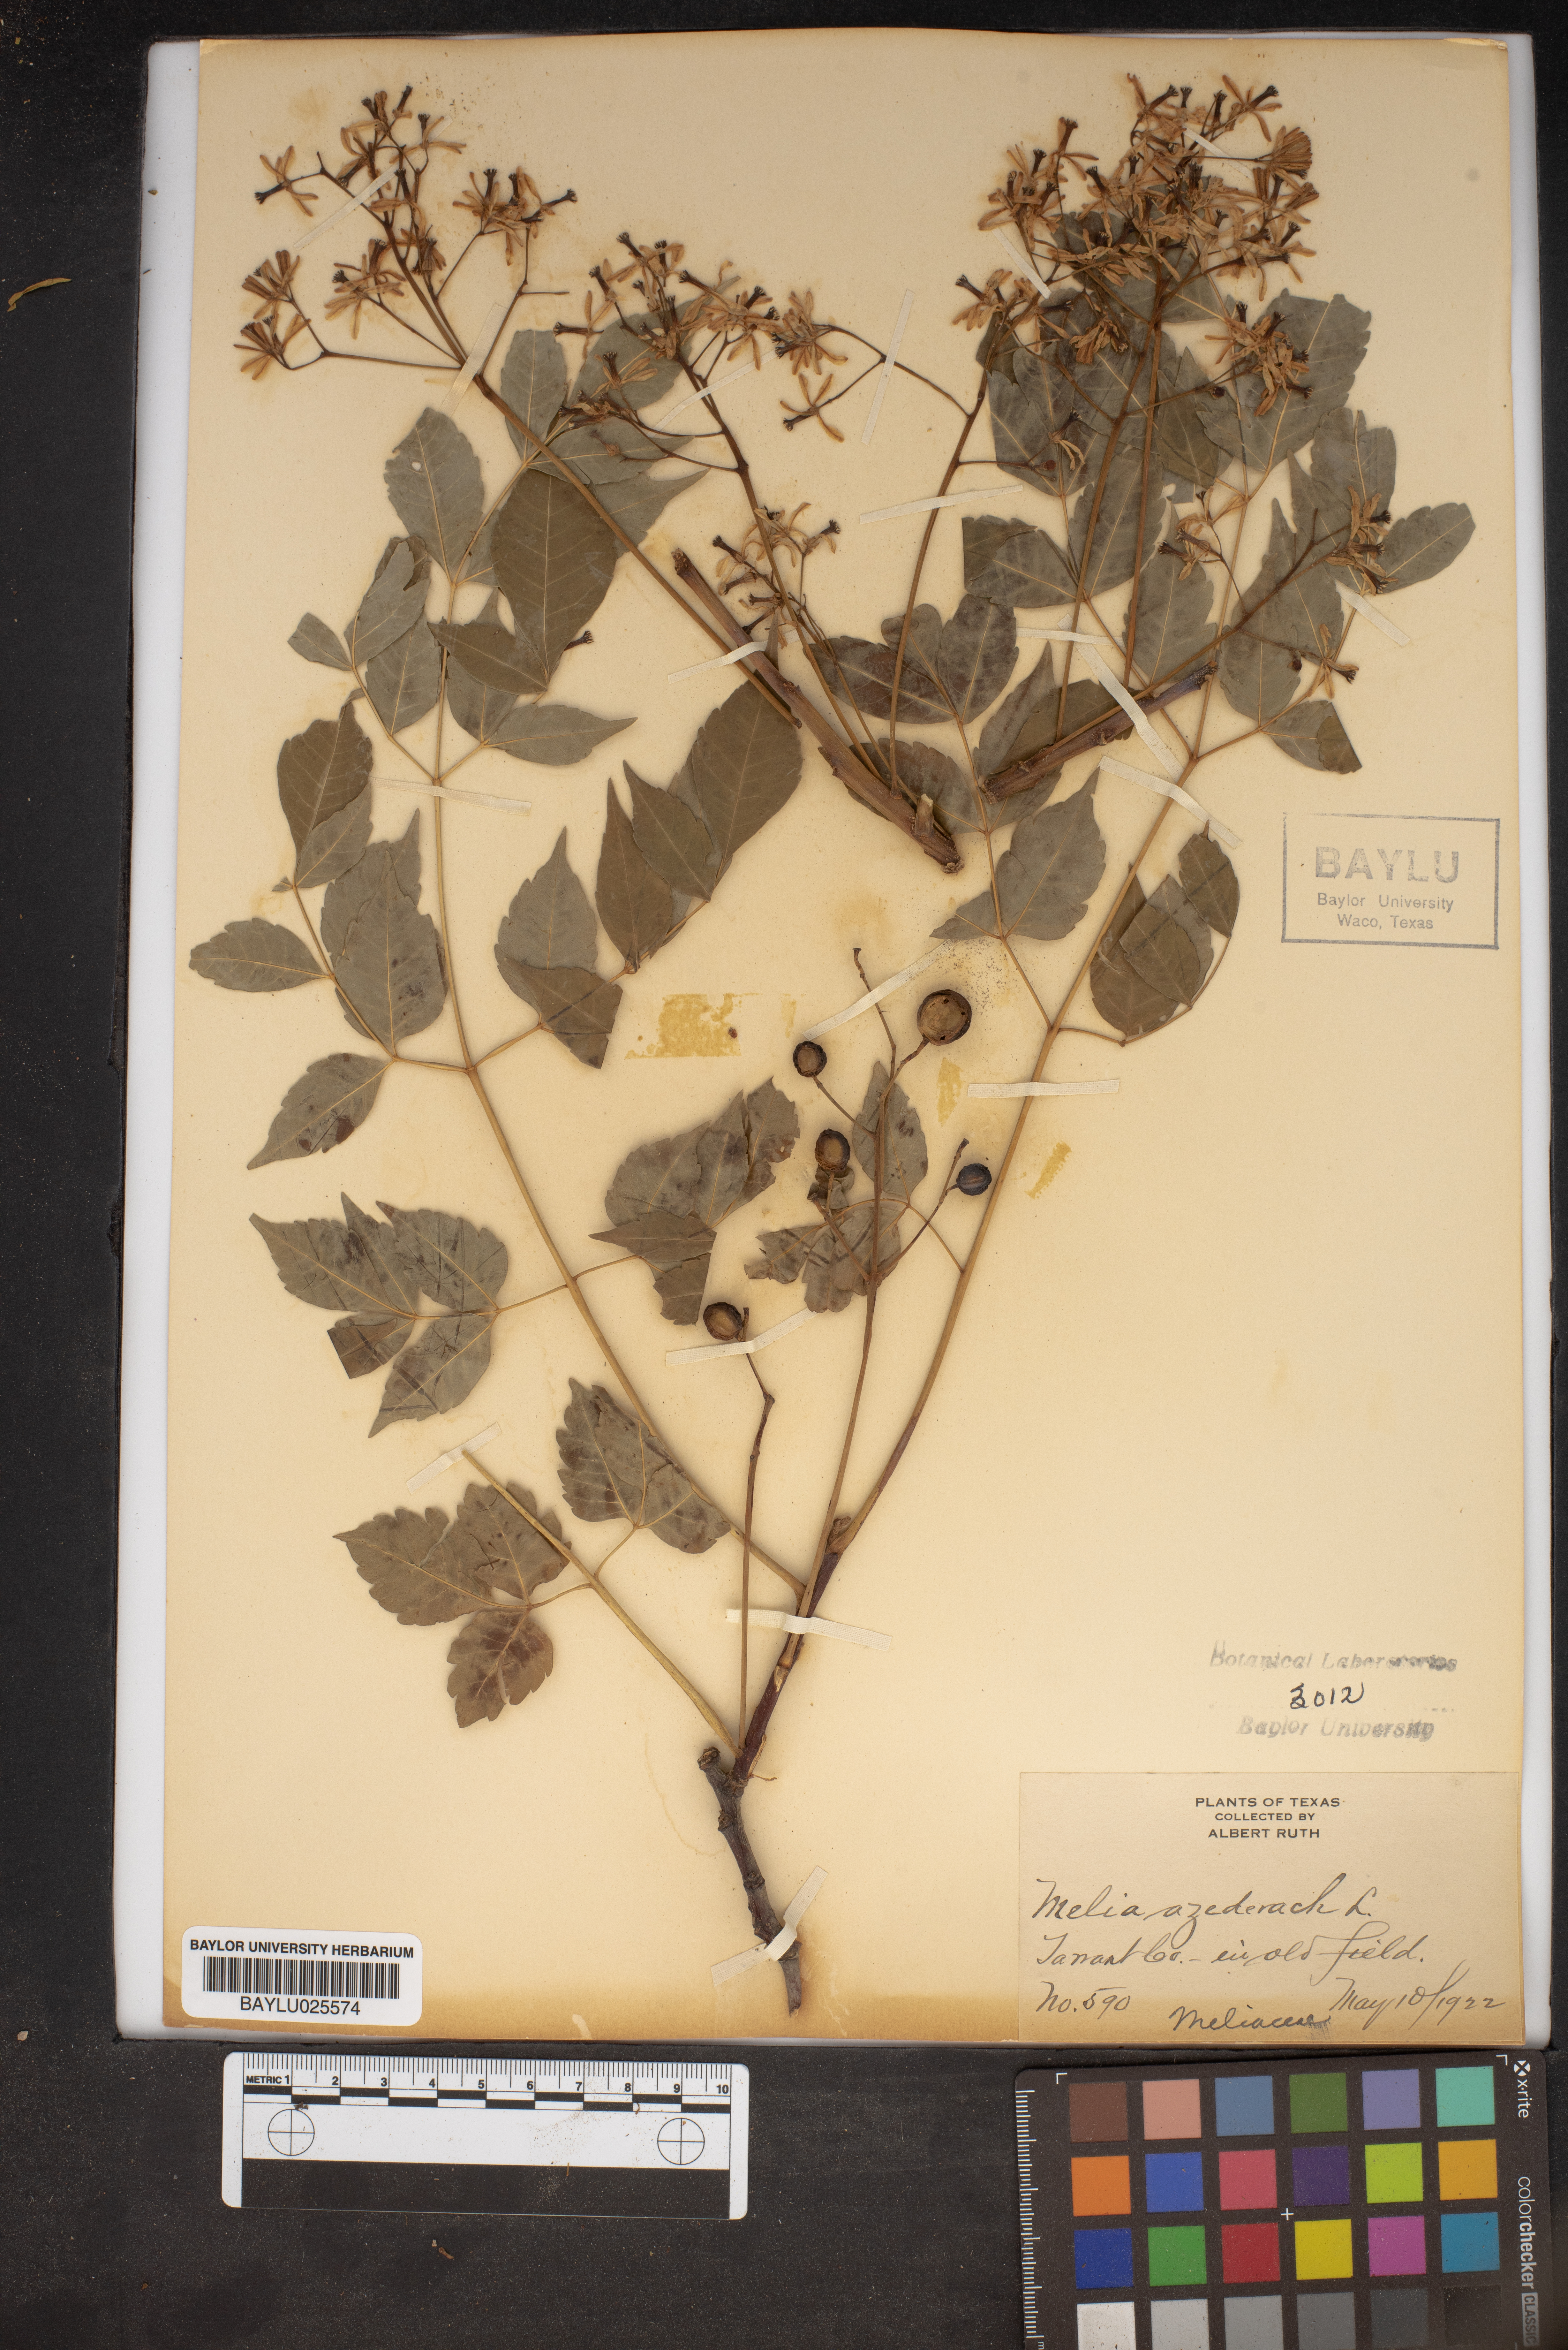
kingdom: Plantae
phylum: Tracheophyta
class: Magnoliopsida
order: Sapindales
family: Meliaceae
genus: Melia
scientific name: Melia azedarach
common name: Chinaberrytree
